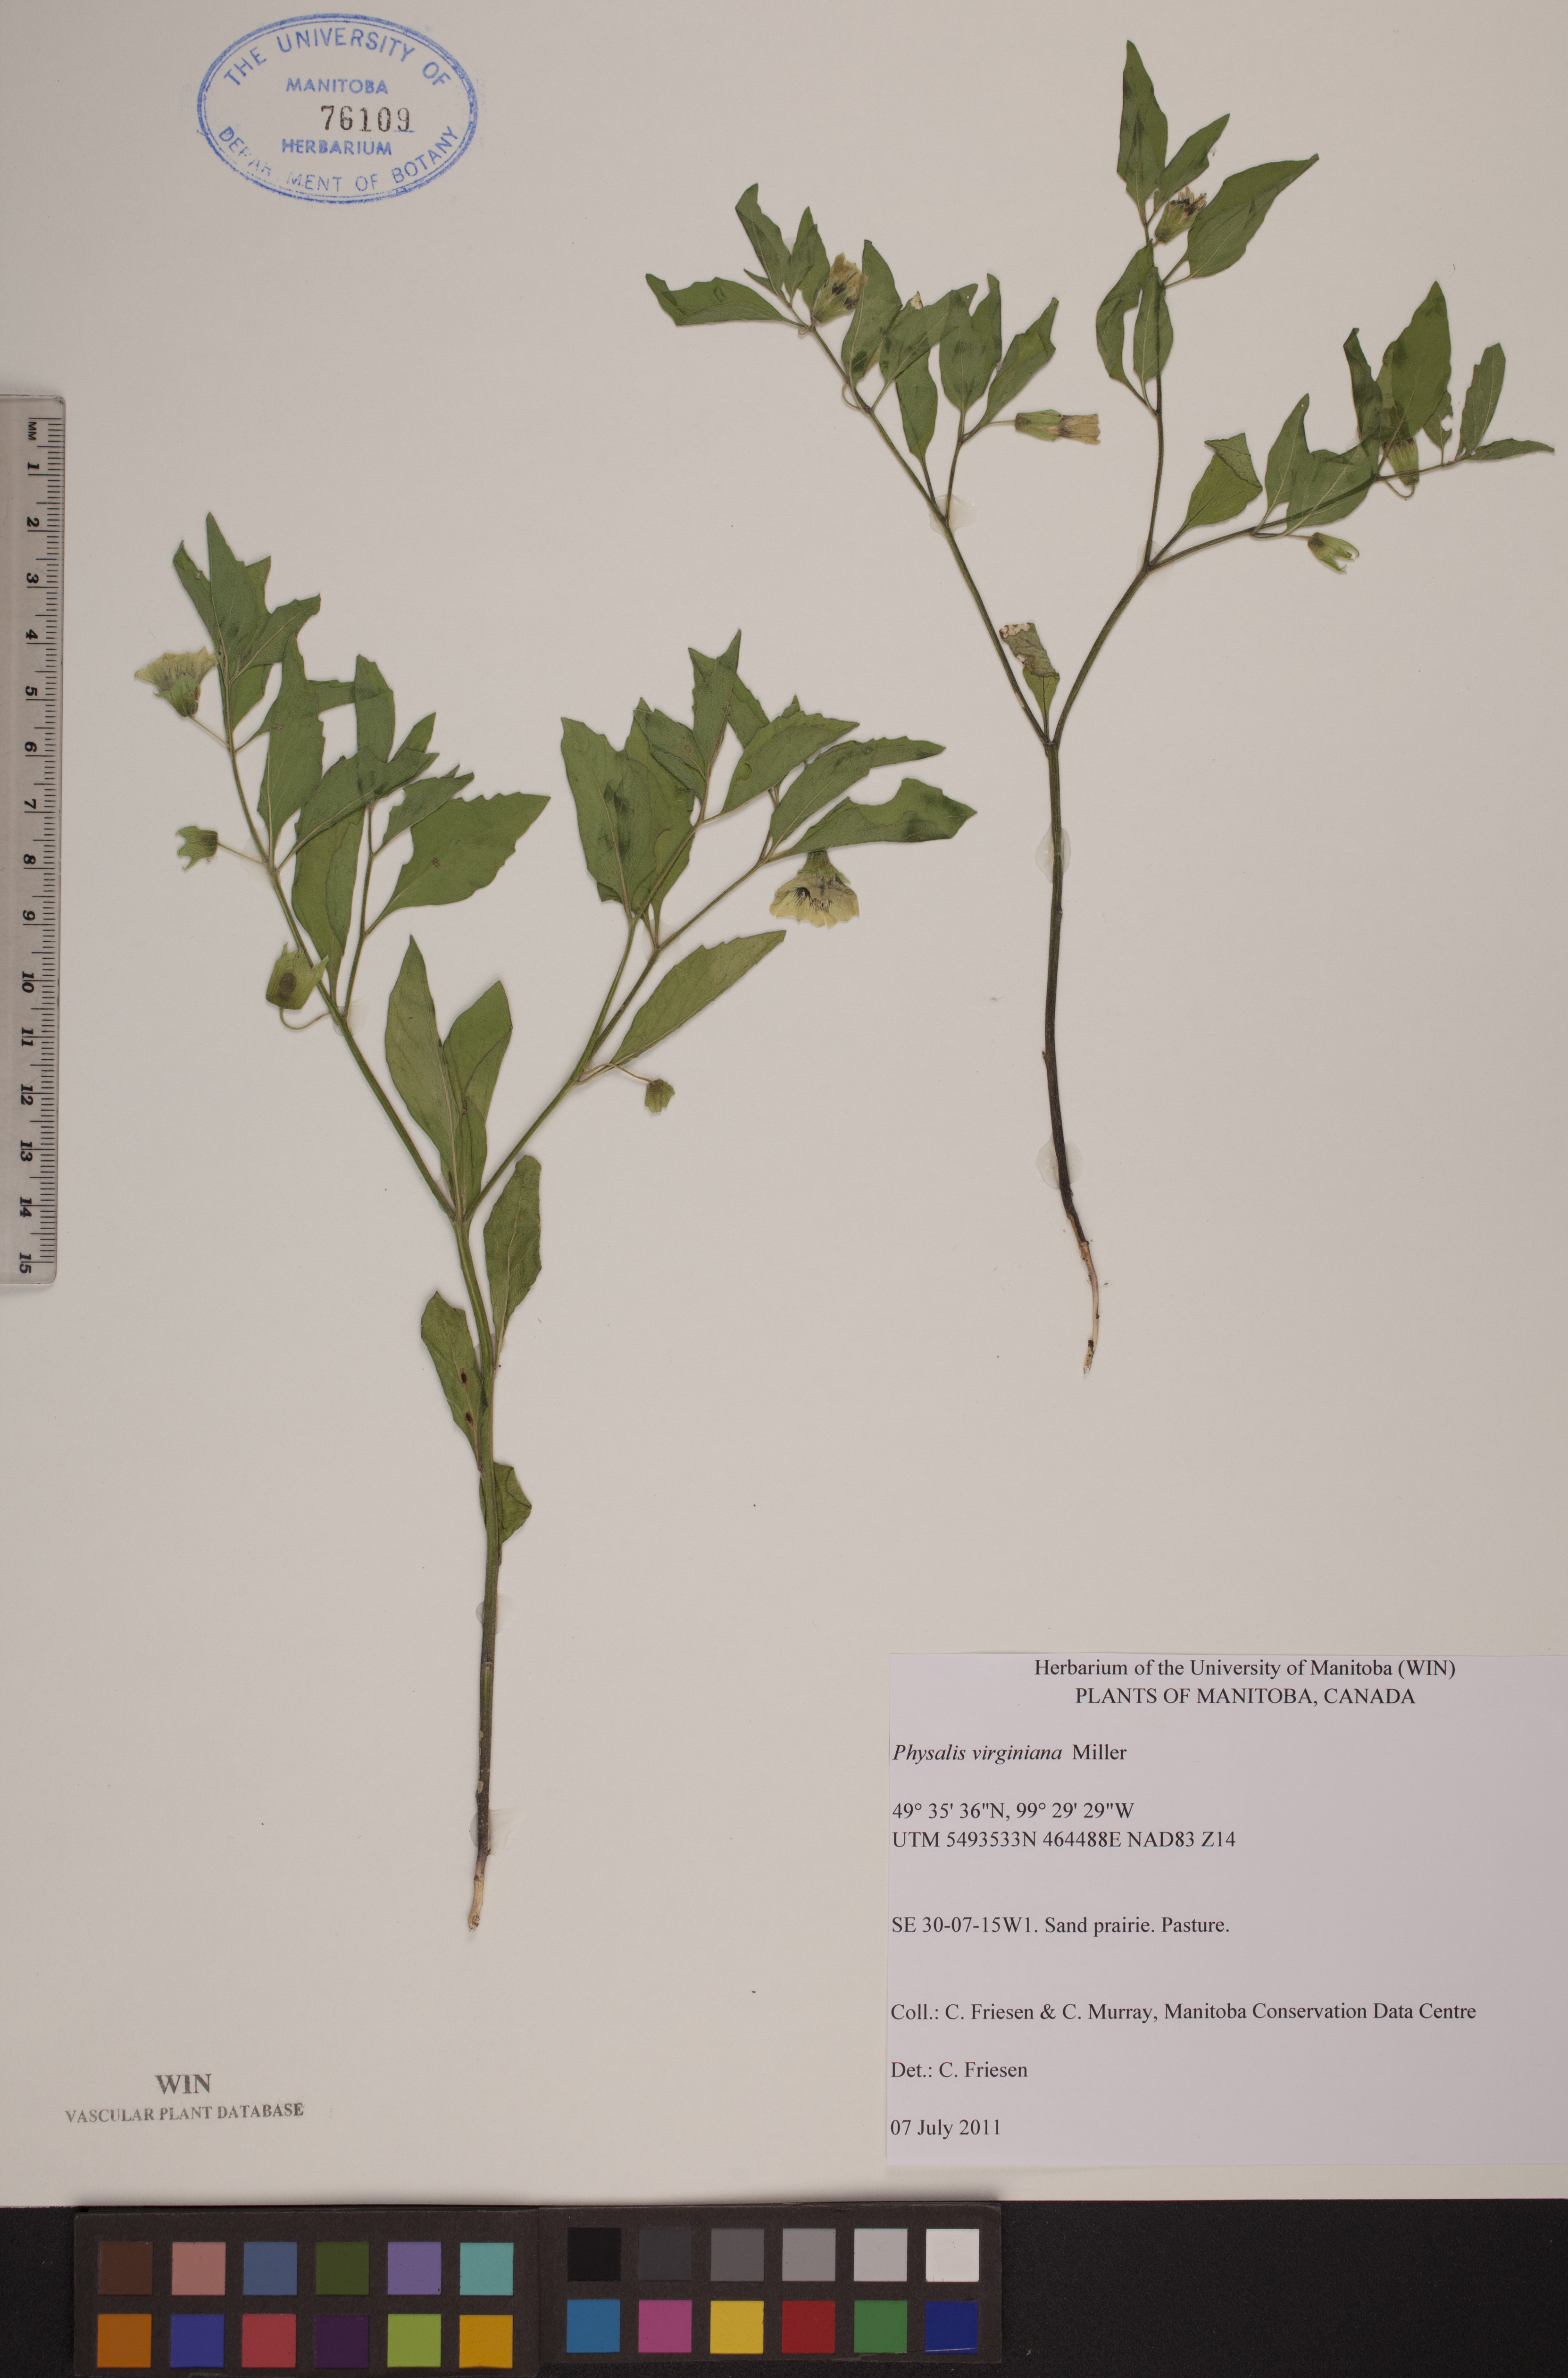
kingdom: Plantae
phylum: Tracheophyta
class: Magnoliopsida
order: Solanales
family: Solanaceae
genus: Physalis
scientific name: Physalis virginiana
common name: Virginia ground-cherry
